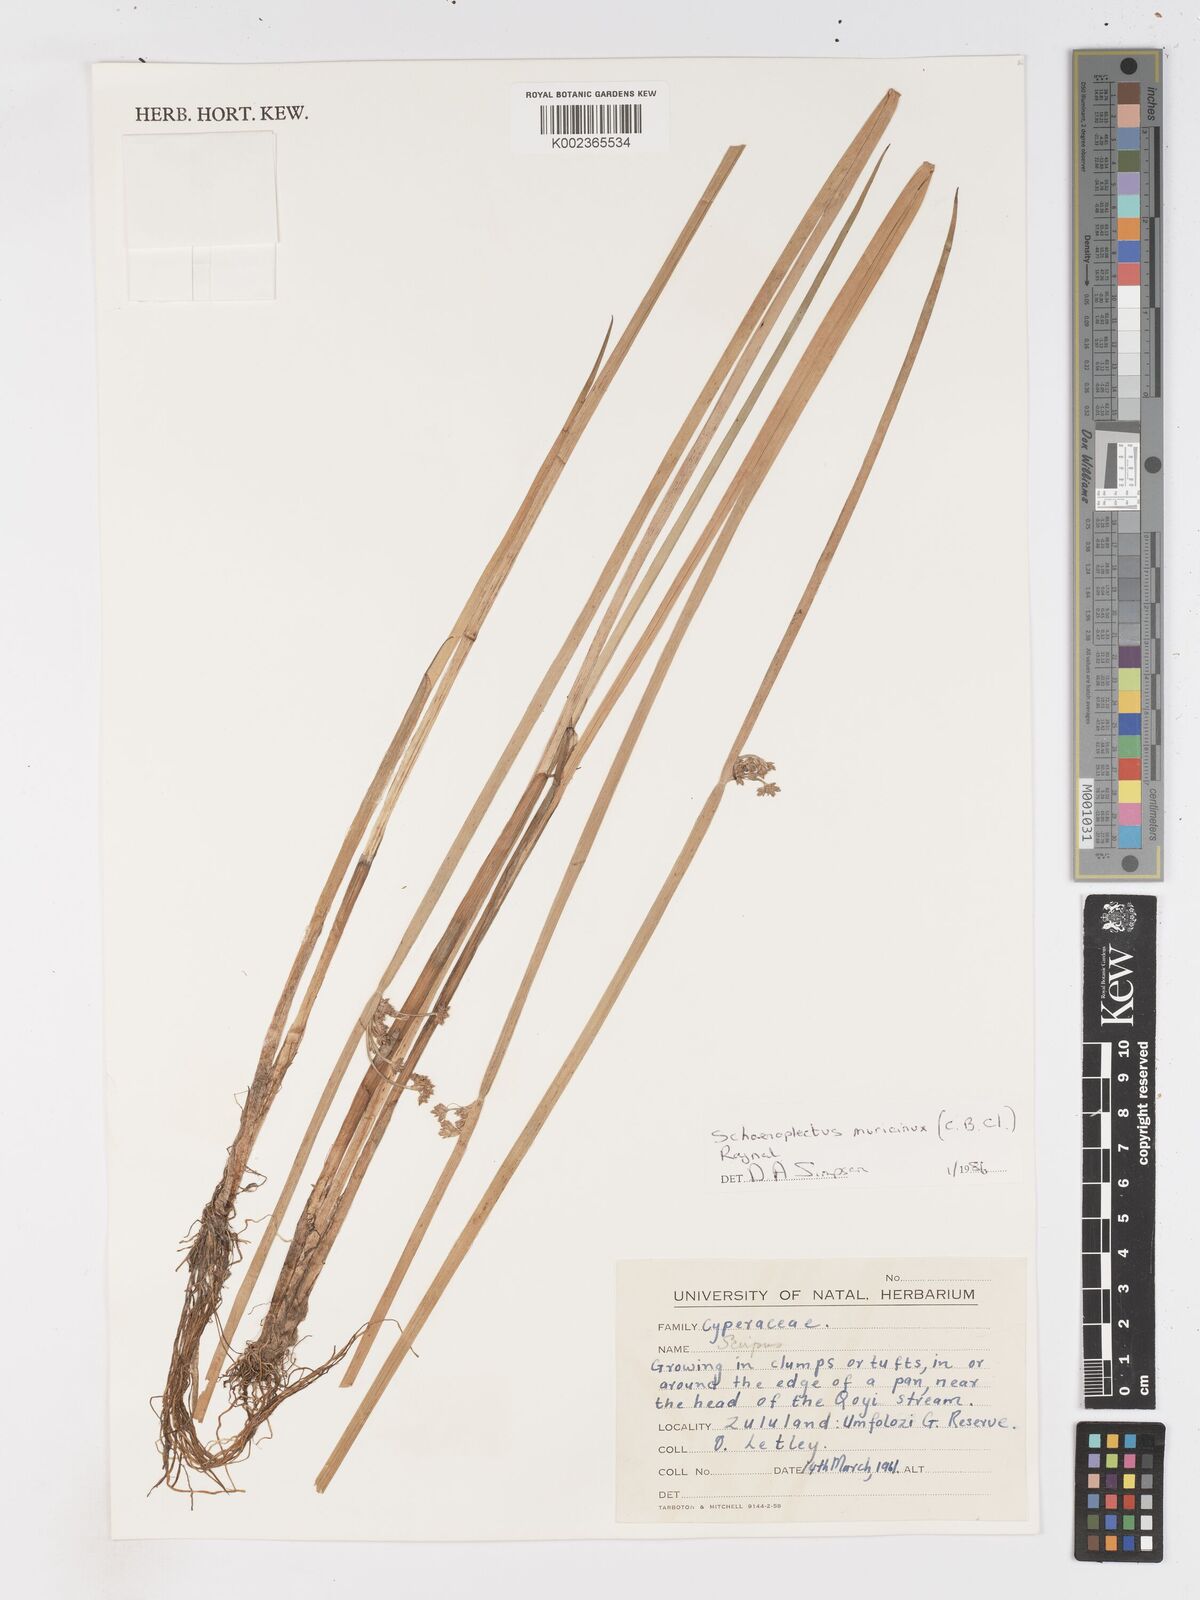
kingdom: Plantae
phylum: Tracheophyta
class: Liliopsida
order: Poales
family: Cyperaceae
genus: Schoenoplectiella
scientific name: Schoenoplectiella muricinux
